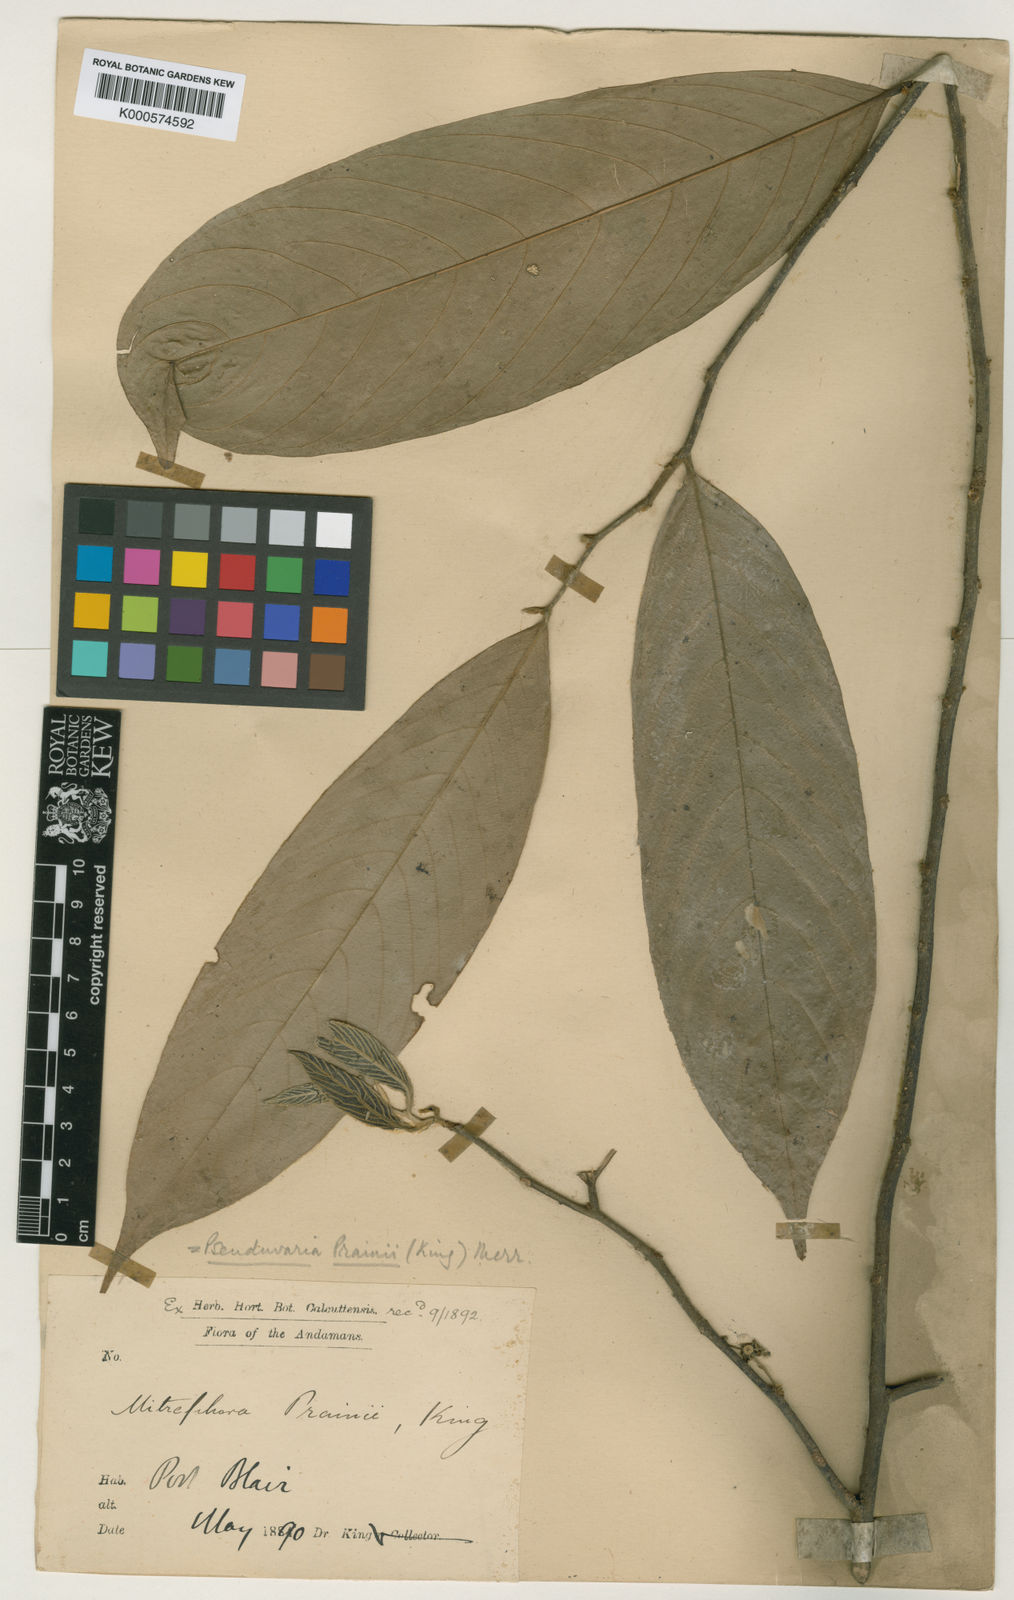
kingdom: Plantae
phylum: Tracheophyta
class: Magnoliopsida
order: Magnoliales
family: Annonaceae
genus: Pseuduvaria
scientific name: Pseuduvaria prainii
